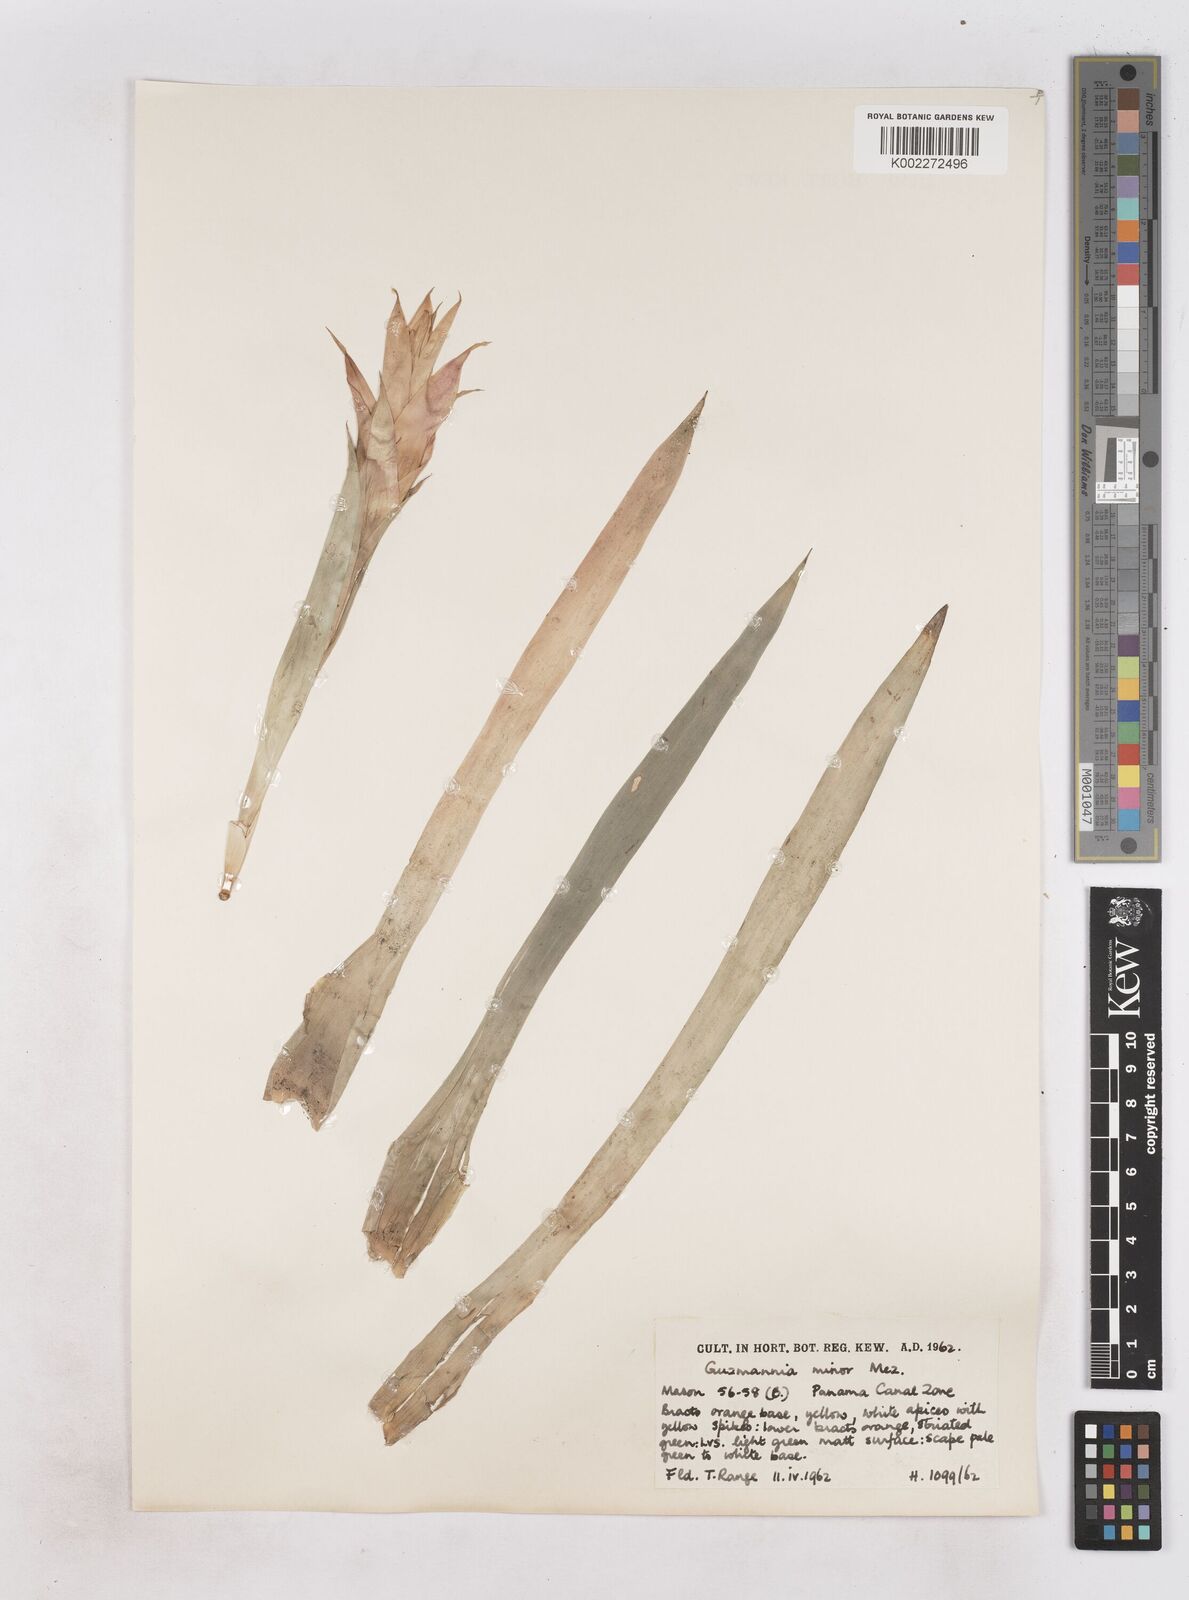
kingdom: Plantae
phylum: Tracheophyta
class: Liliopsida
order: Poales
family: Bromeliaceae
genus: Guzmania
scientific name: Guzmania lingulata
